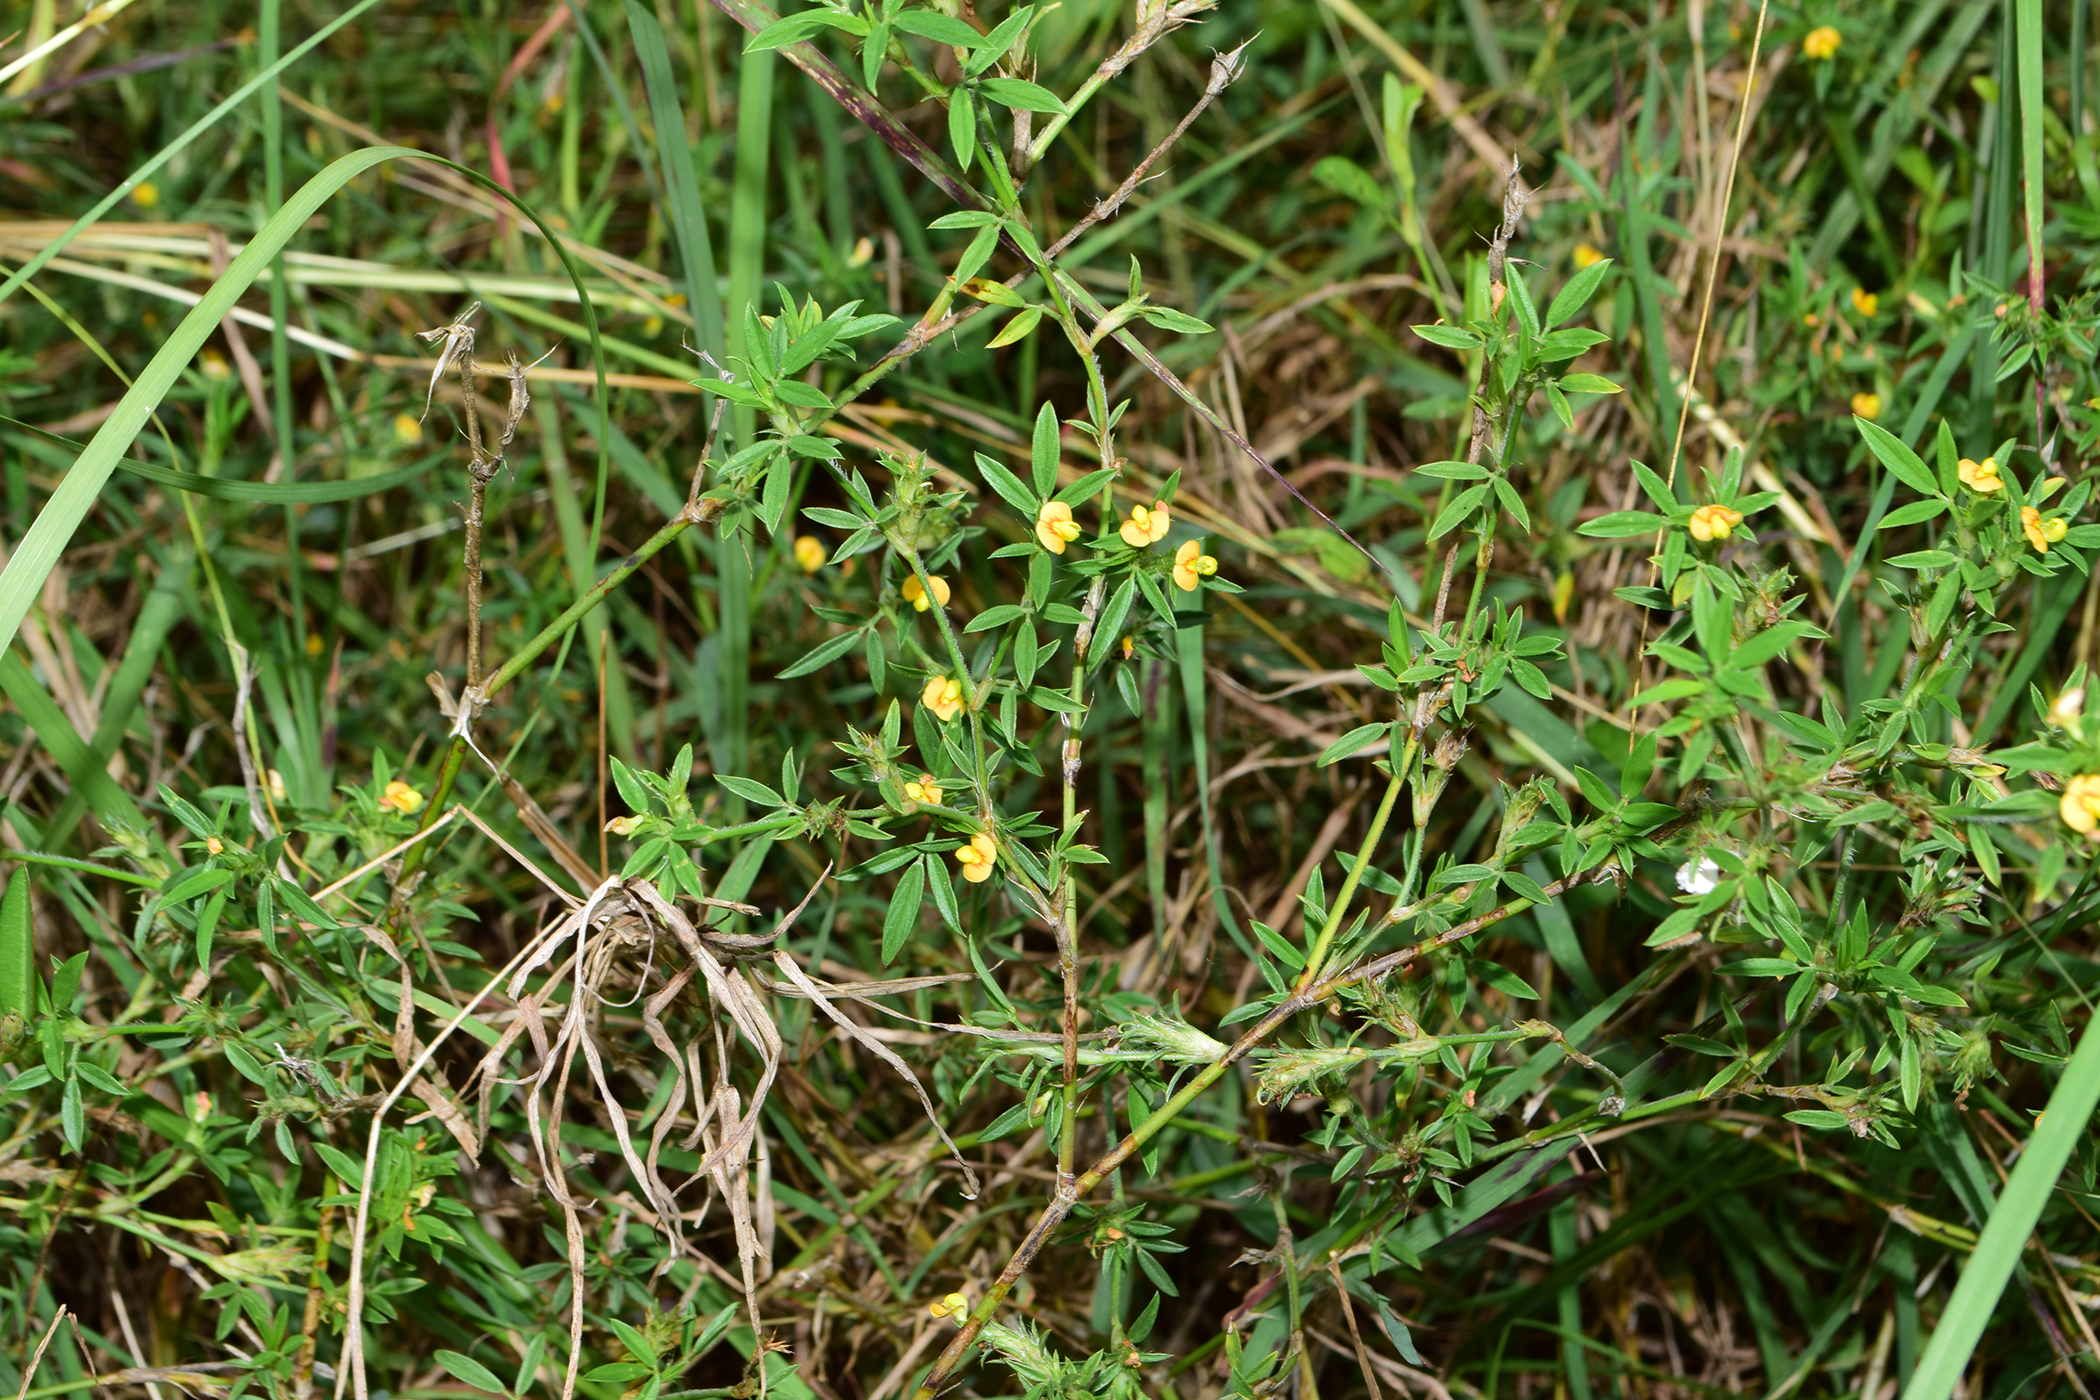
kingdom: Plantae
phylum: Tracheophyta
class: Magnoliopsida
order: Fabales
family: Fabaceae
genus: Stylosanthes
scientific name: Stylosanthes
